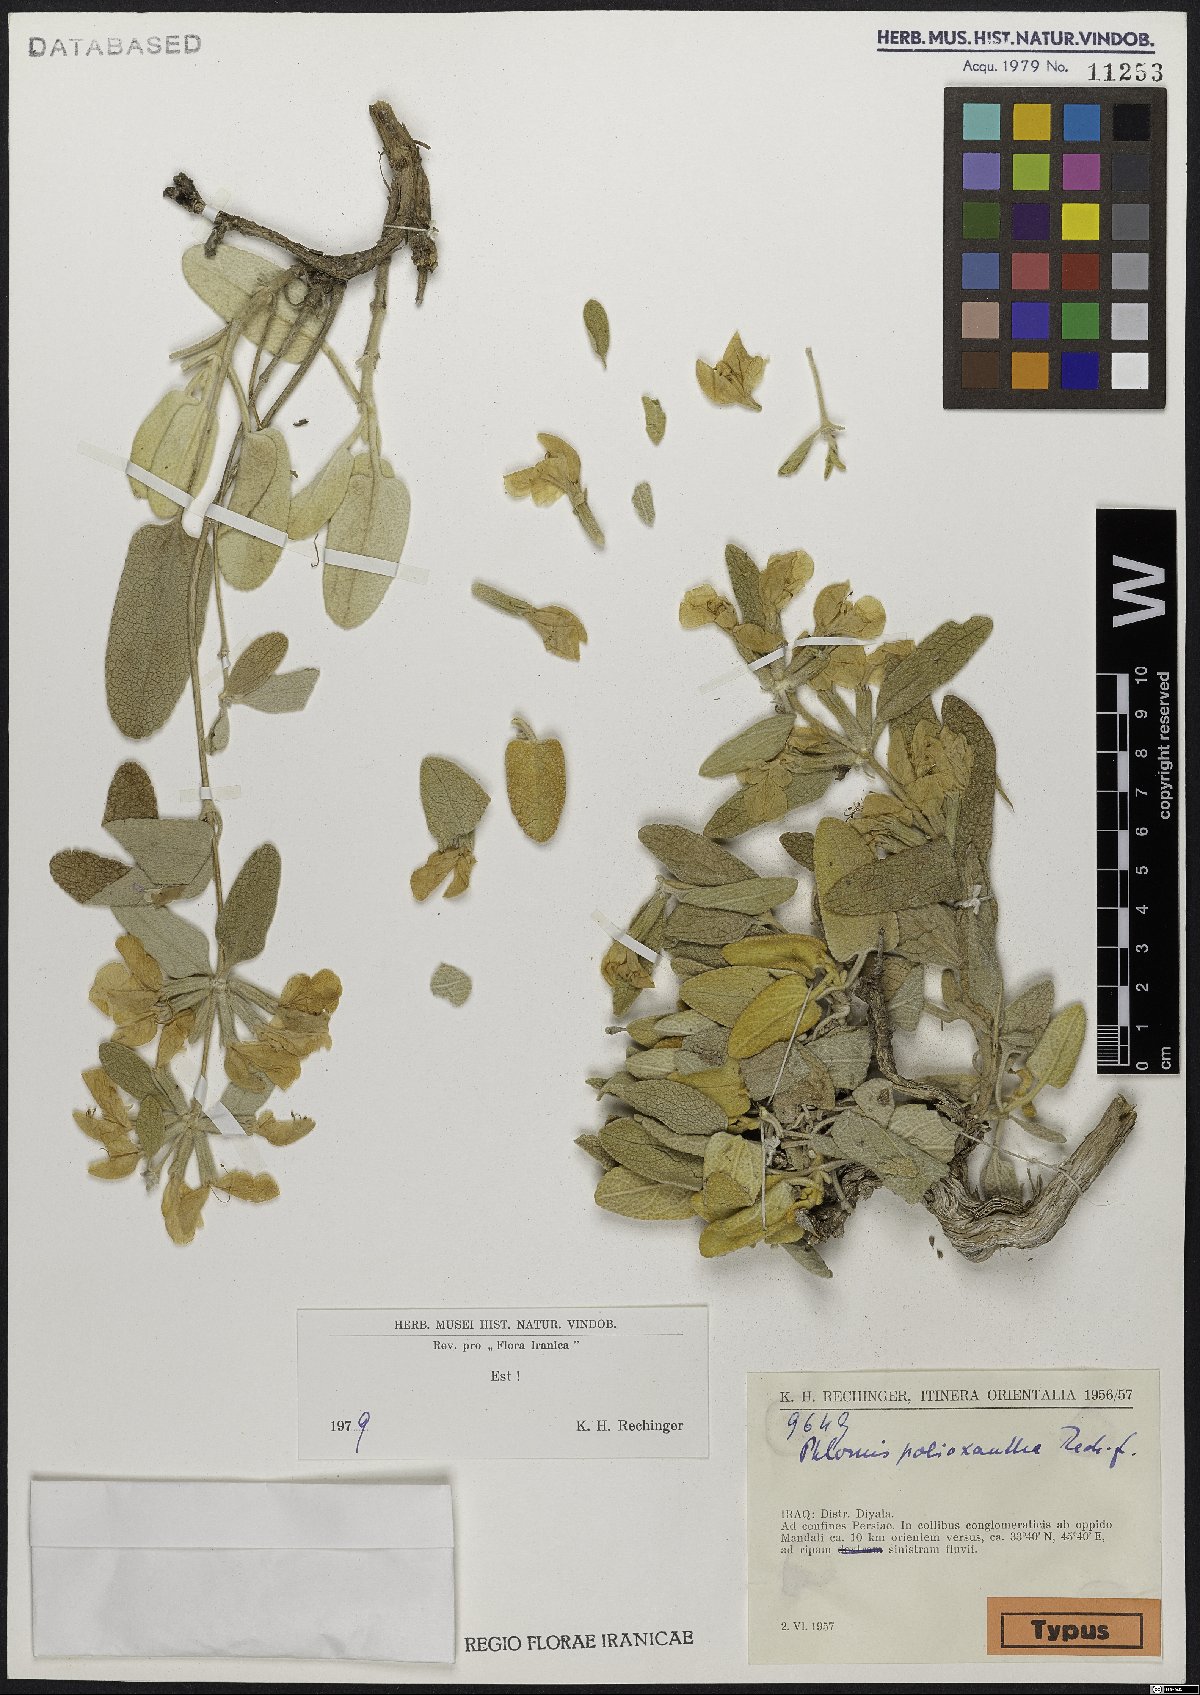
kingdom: Plantae
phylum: Tracheophyta
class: Magnoliopsida
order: Lamiales
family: Lamiaceae
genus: Phlomis
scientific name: Phlomis polioxantha
